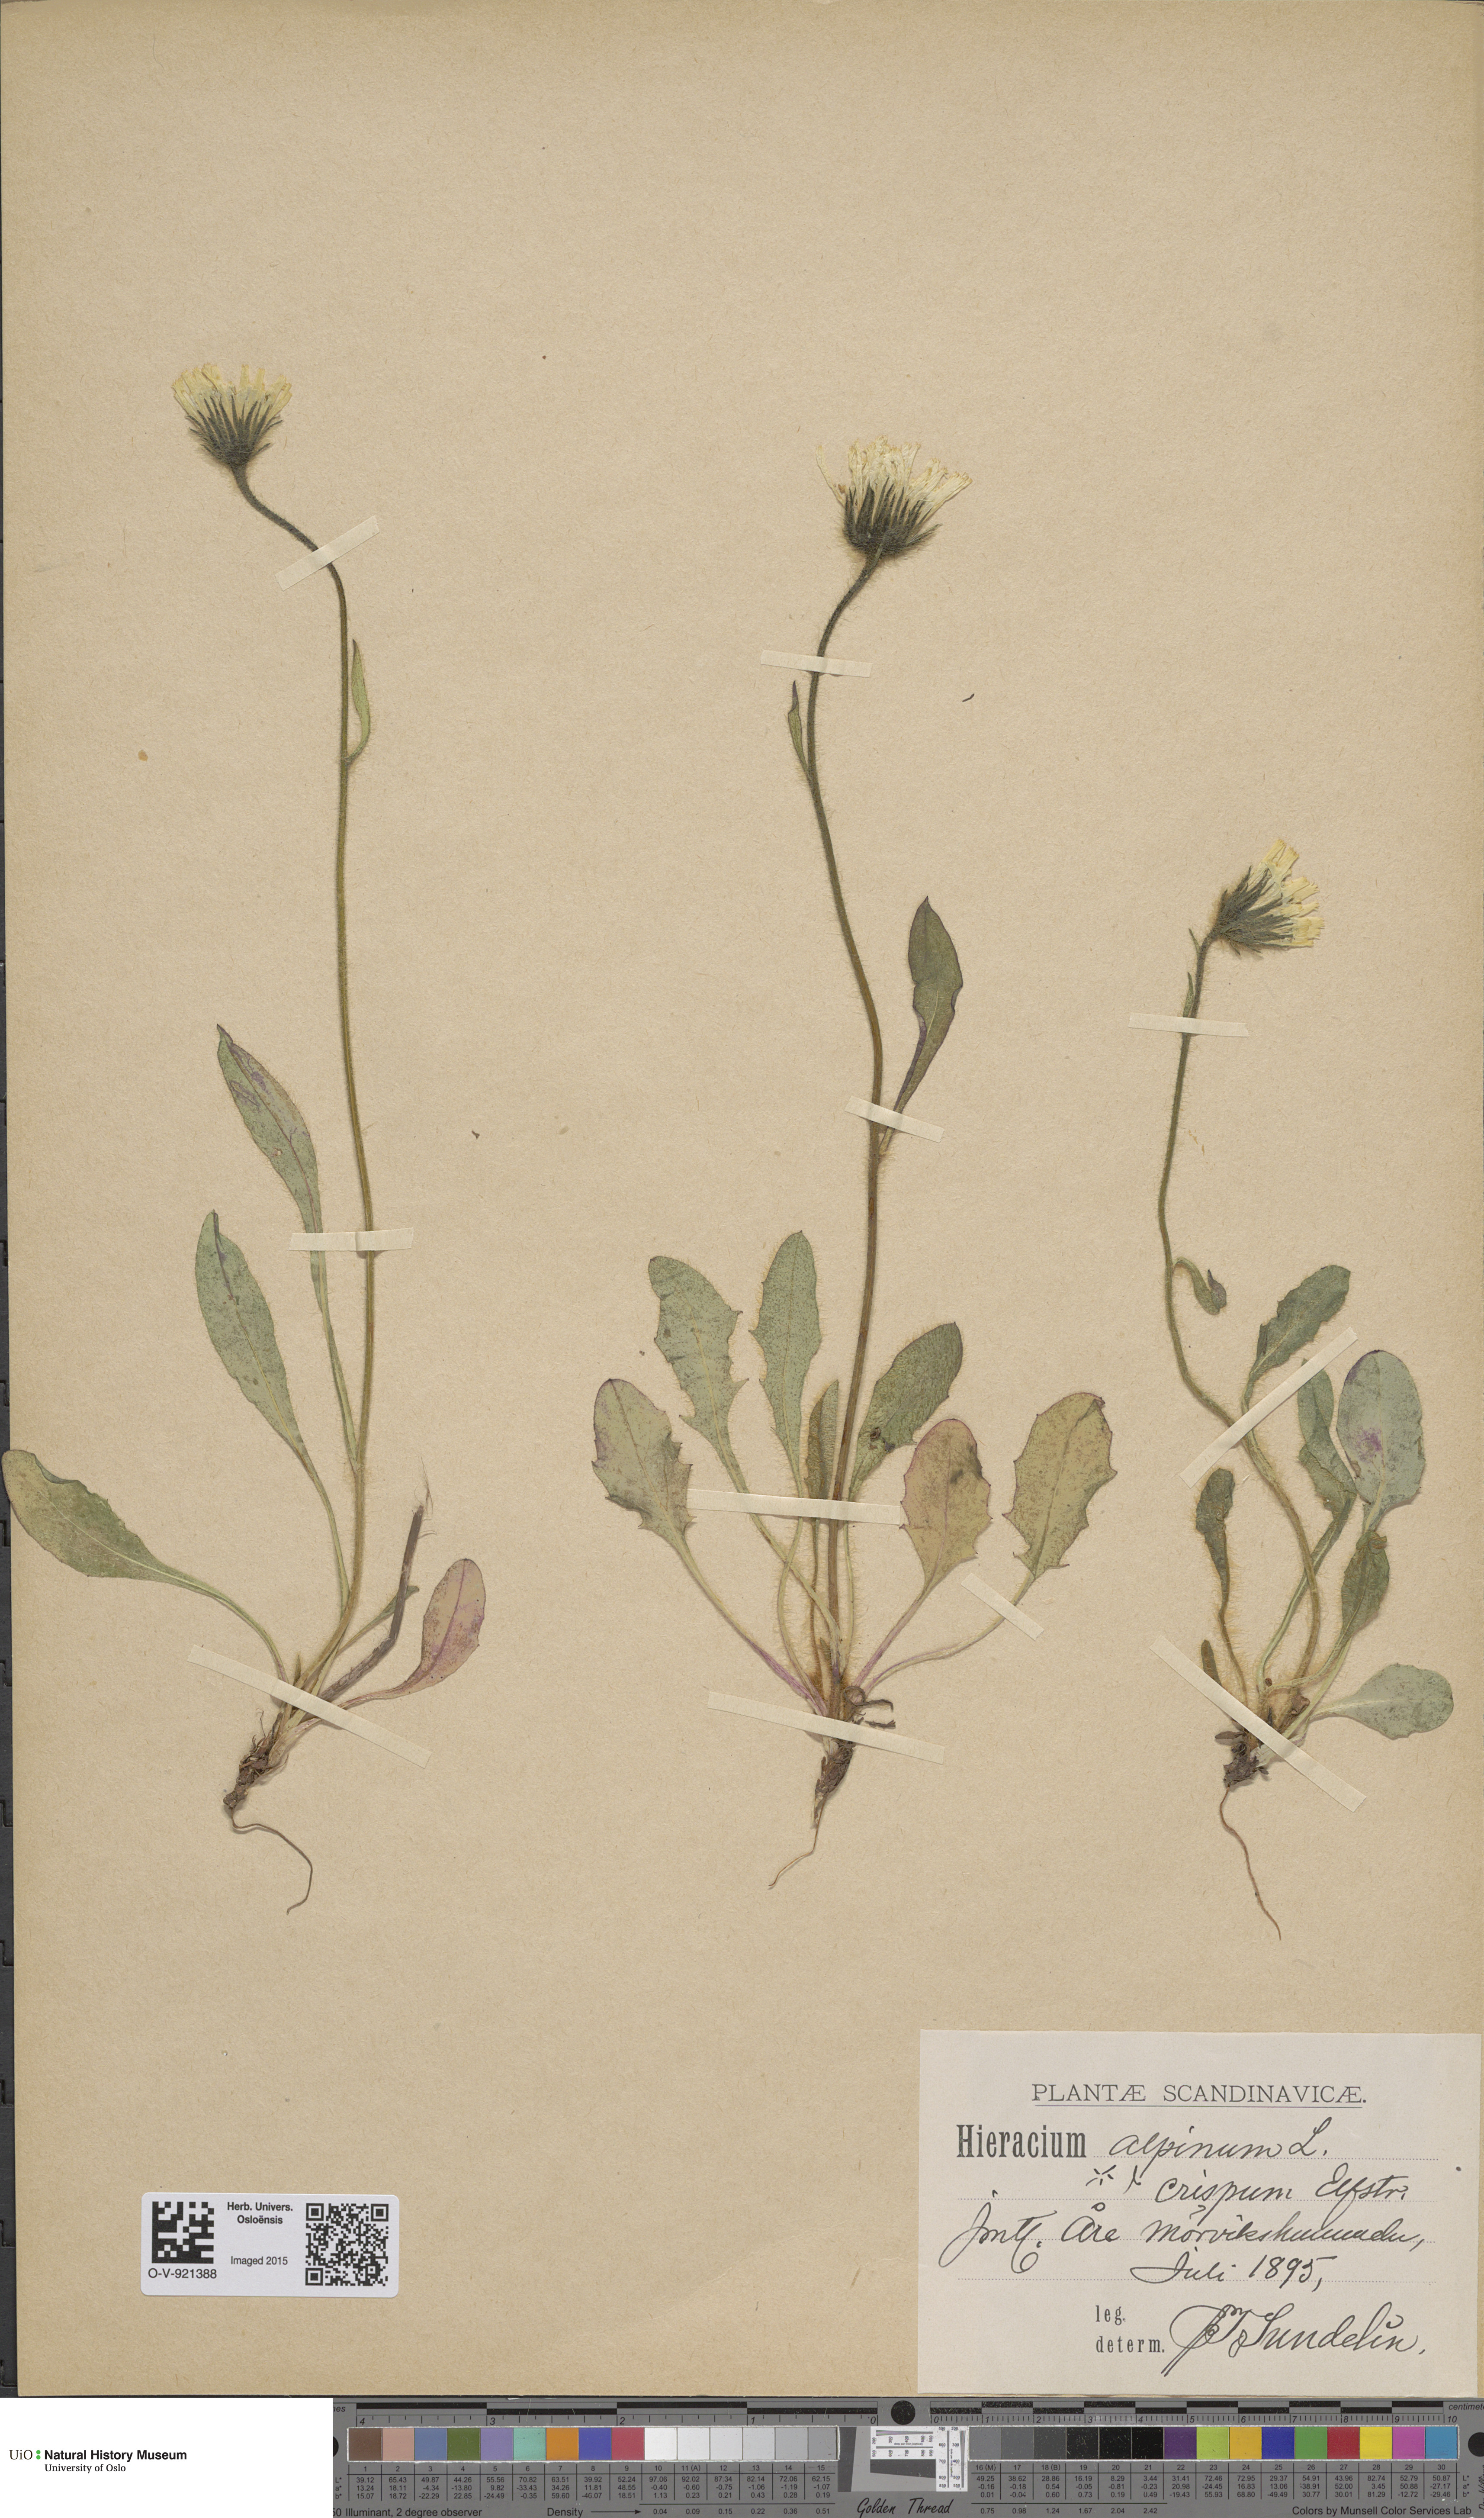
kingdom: Plantae
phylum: Tracheophyta
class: Magnoliopsida
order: Asterales
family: Asteraceae
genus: Hieracium
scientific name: Hieracium alpinum
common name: Alpine hawkweed
